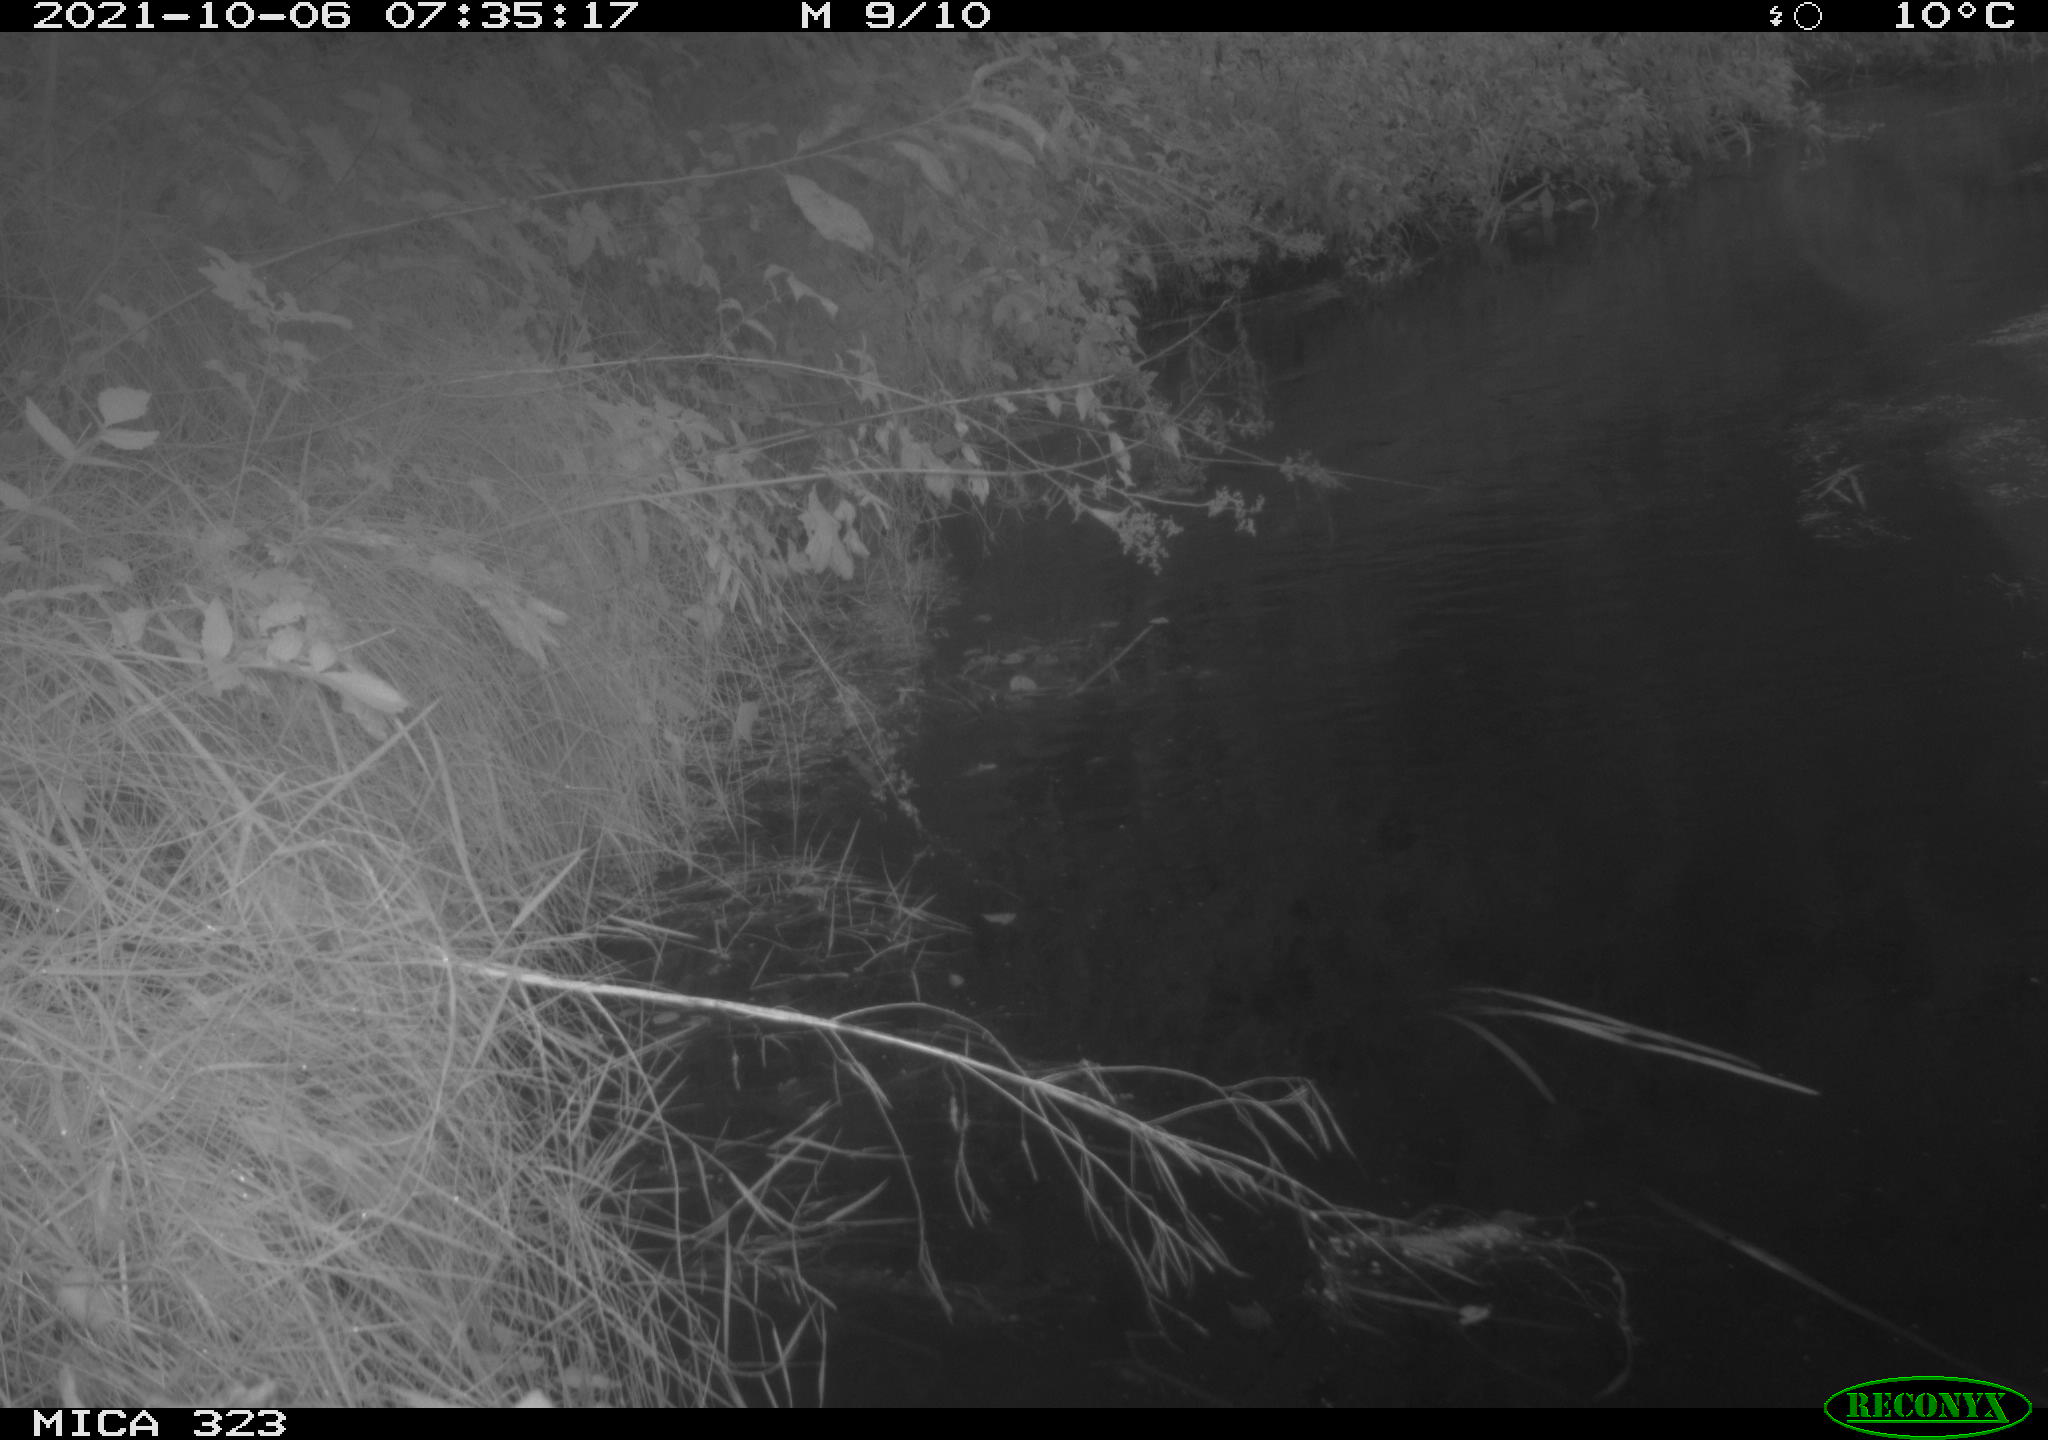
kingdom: Animalia
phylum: Chordata
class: Aves
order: Anseriformes
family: Anatidae
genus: Anas
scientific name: Anas
